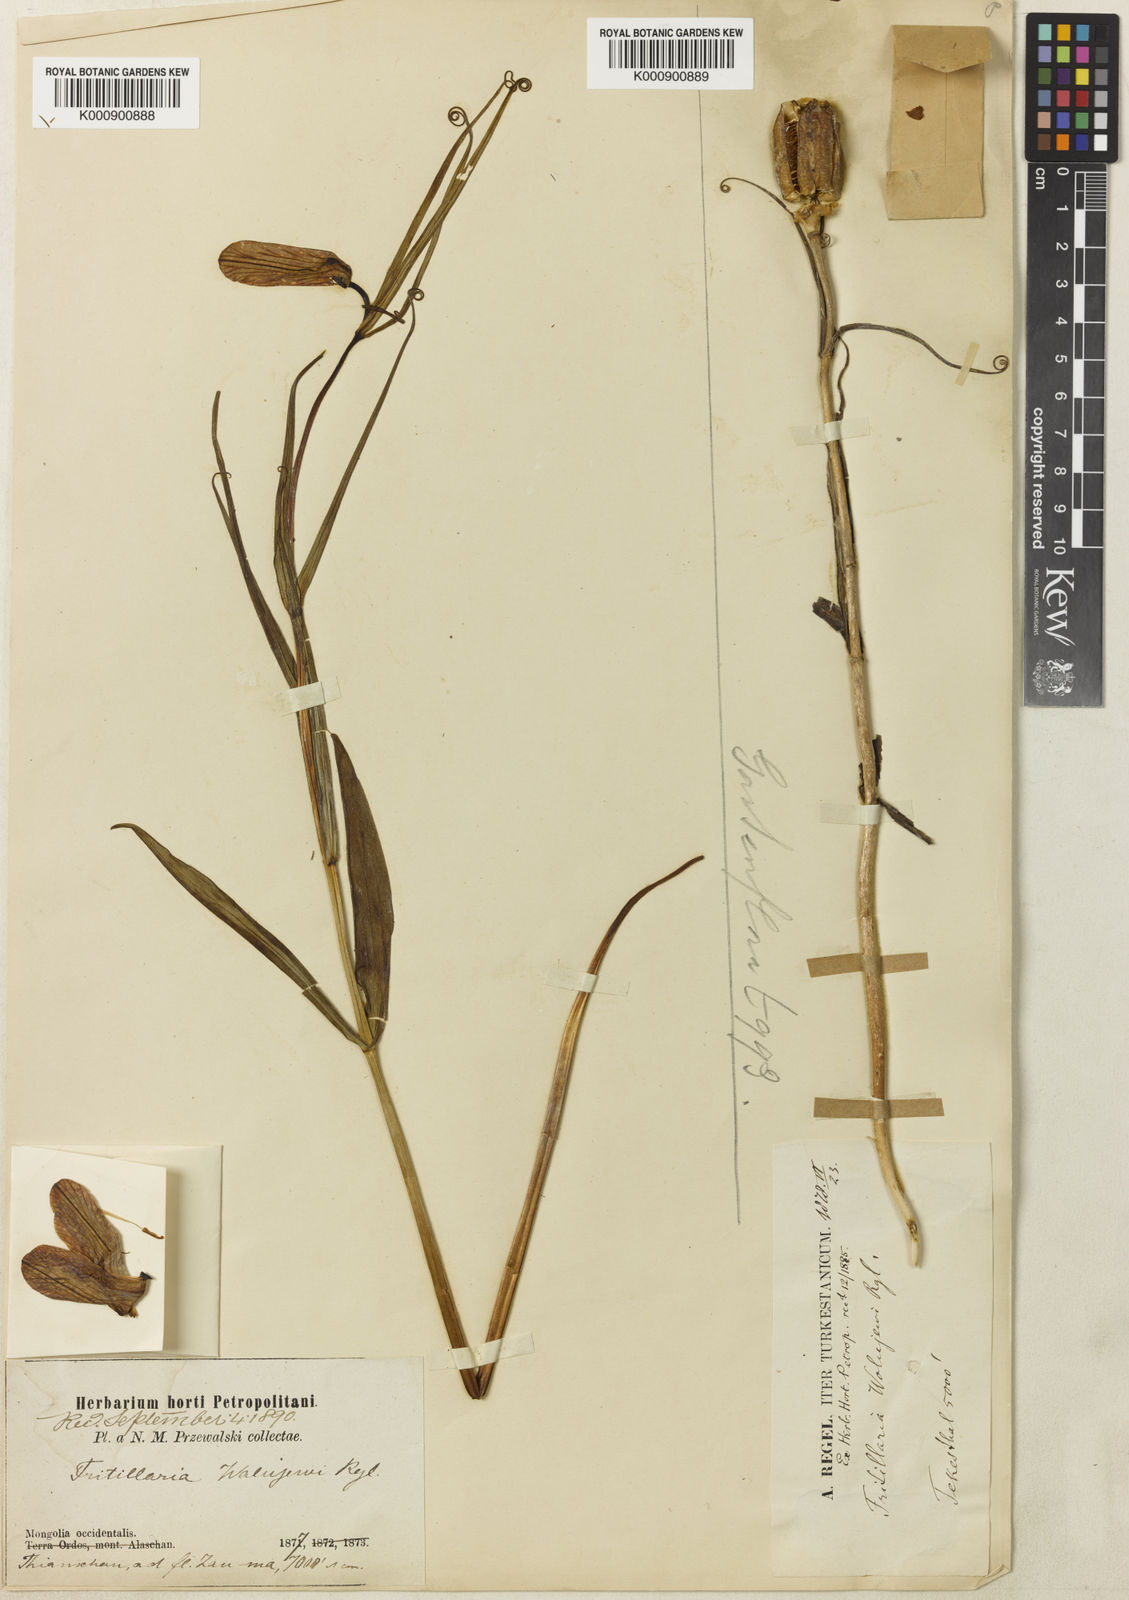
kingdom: Plantae
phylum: Tracheophyta
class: Liliopsida
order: Liliales
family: Liliaceae
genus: Fritillaria
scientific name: Fritillaria walujewii
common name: Sinkiang fritillaria
